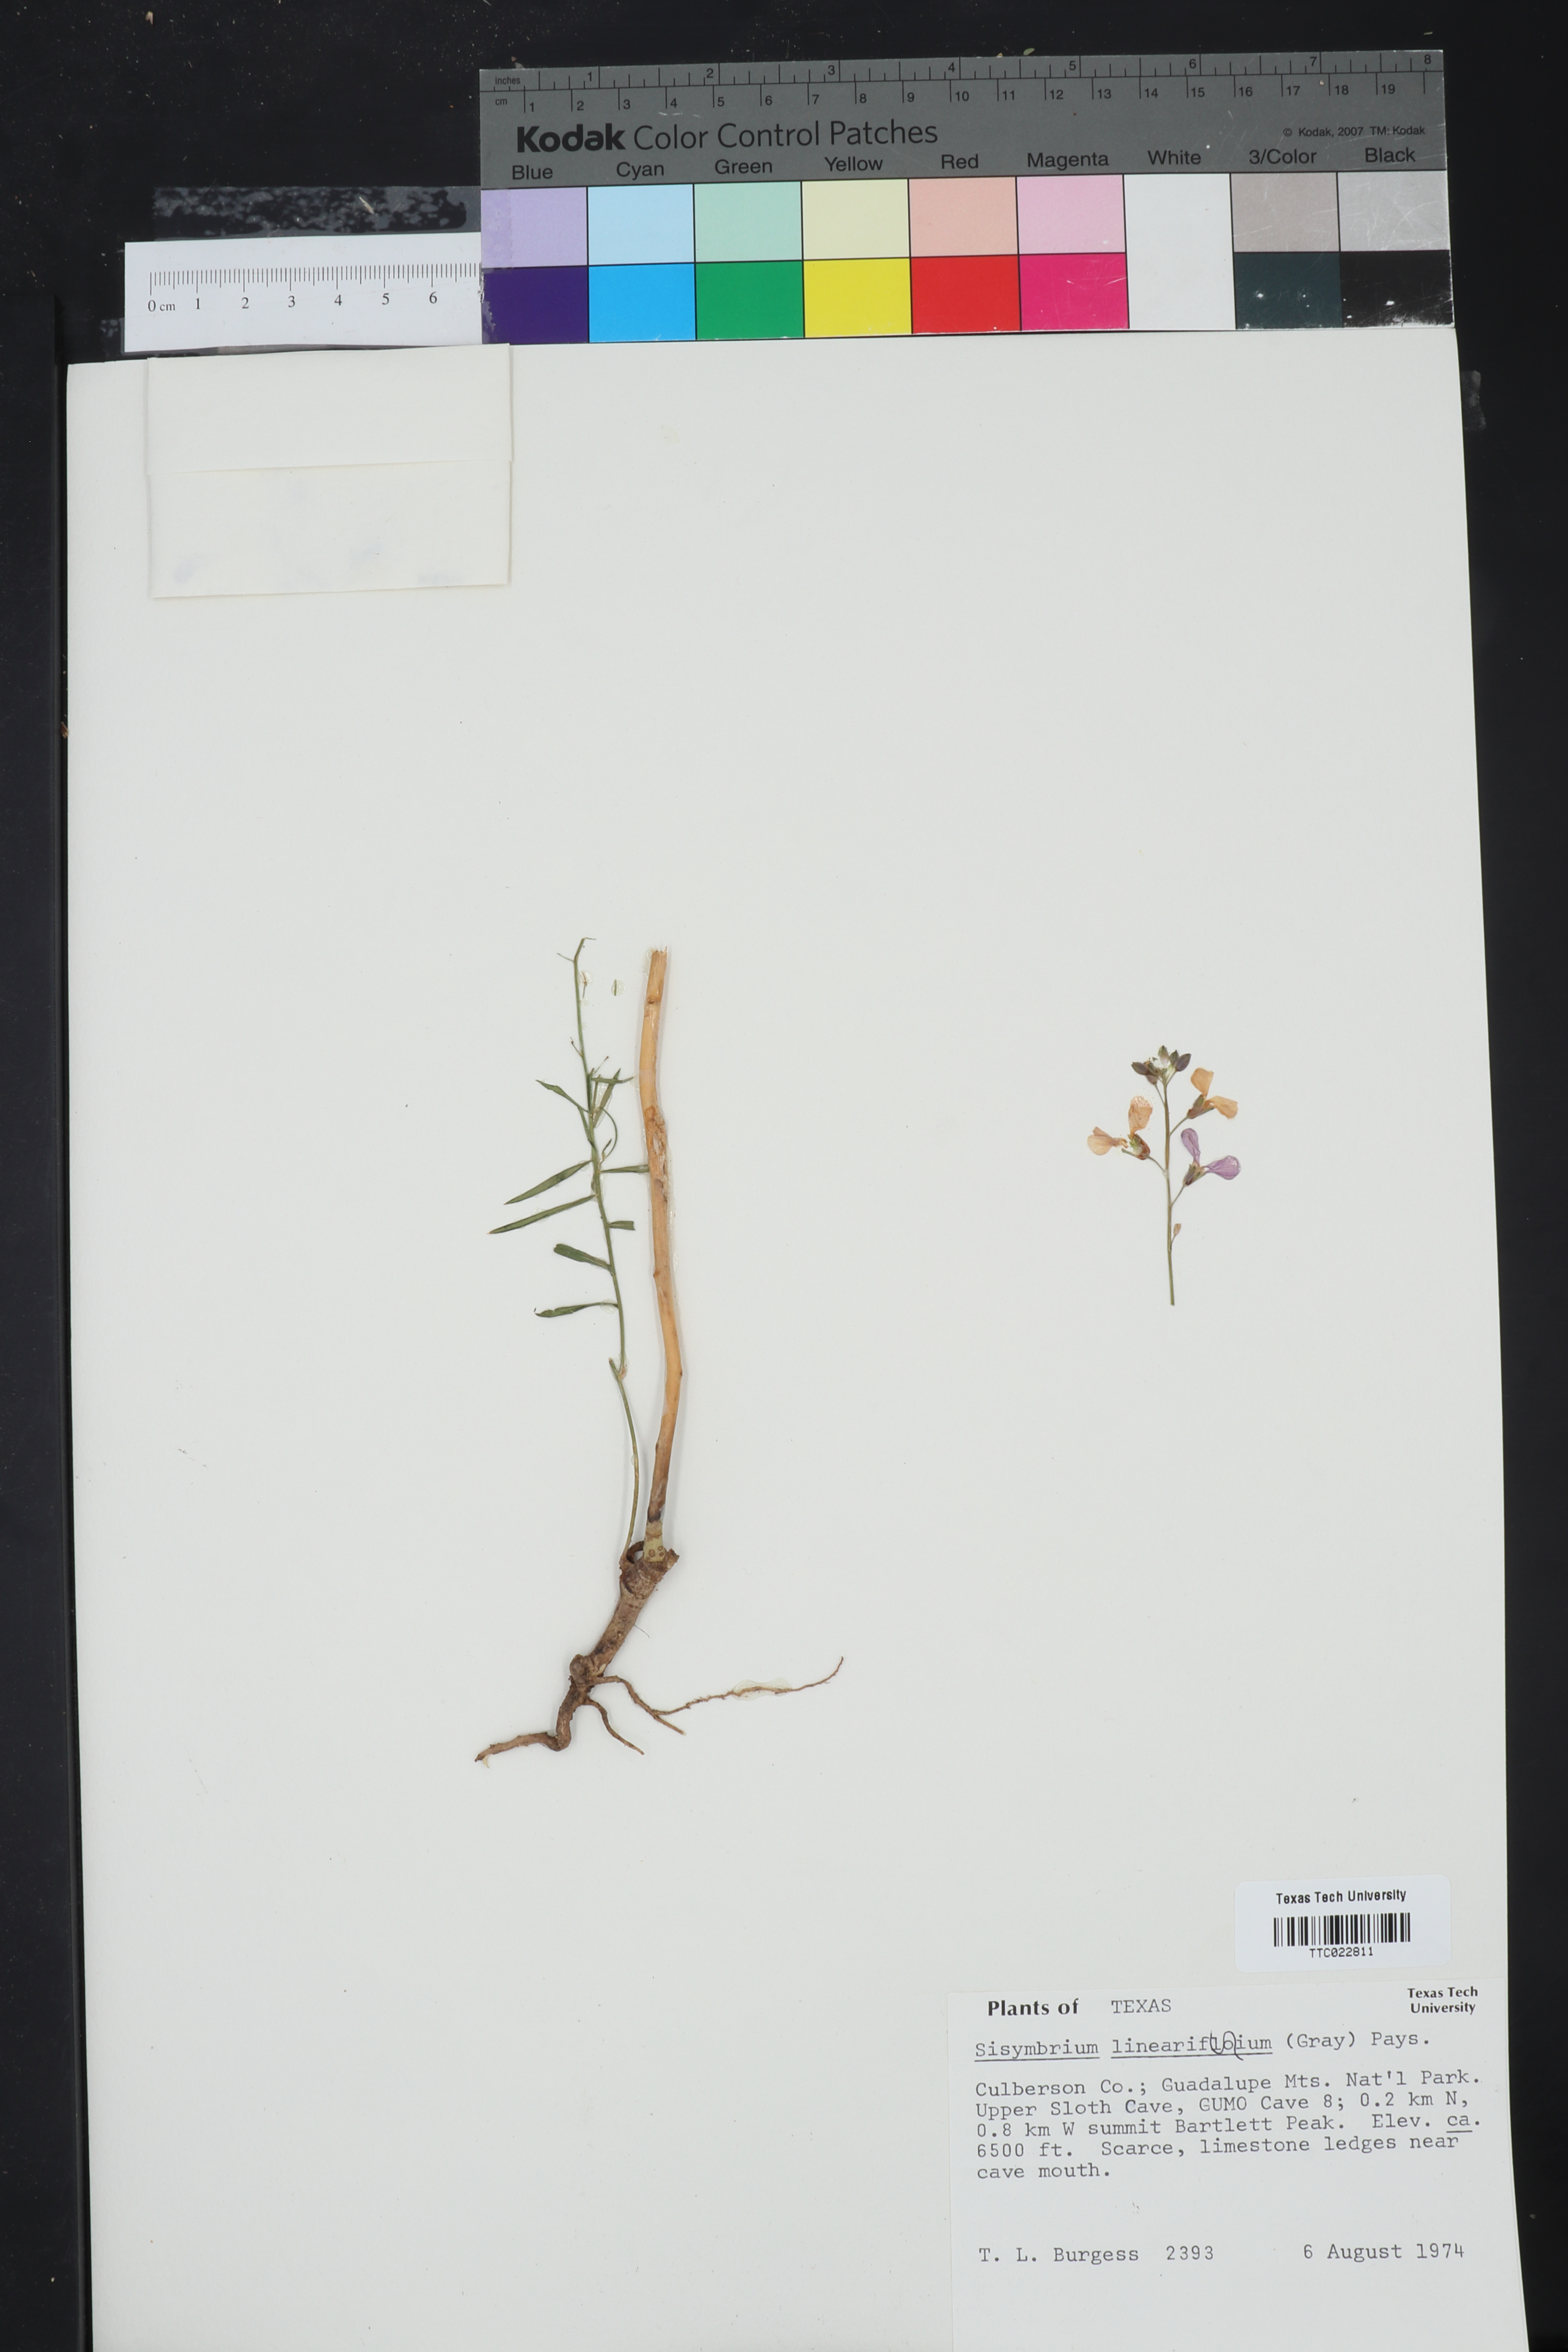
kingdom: Plantae
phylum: Tracheophyta
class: Magnoliopsida
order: Brassicales
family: Brassicaceae
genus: Hesperidanthus
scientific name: Hesperidanthus linearifolius
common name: Slim-leaf plains mustard
